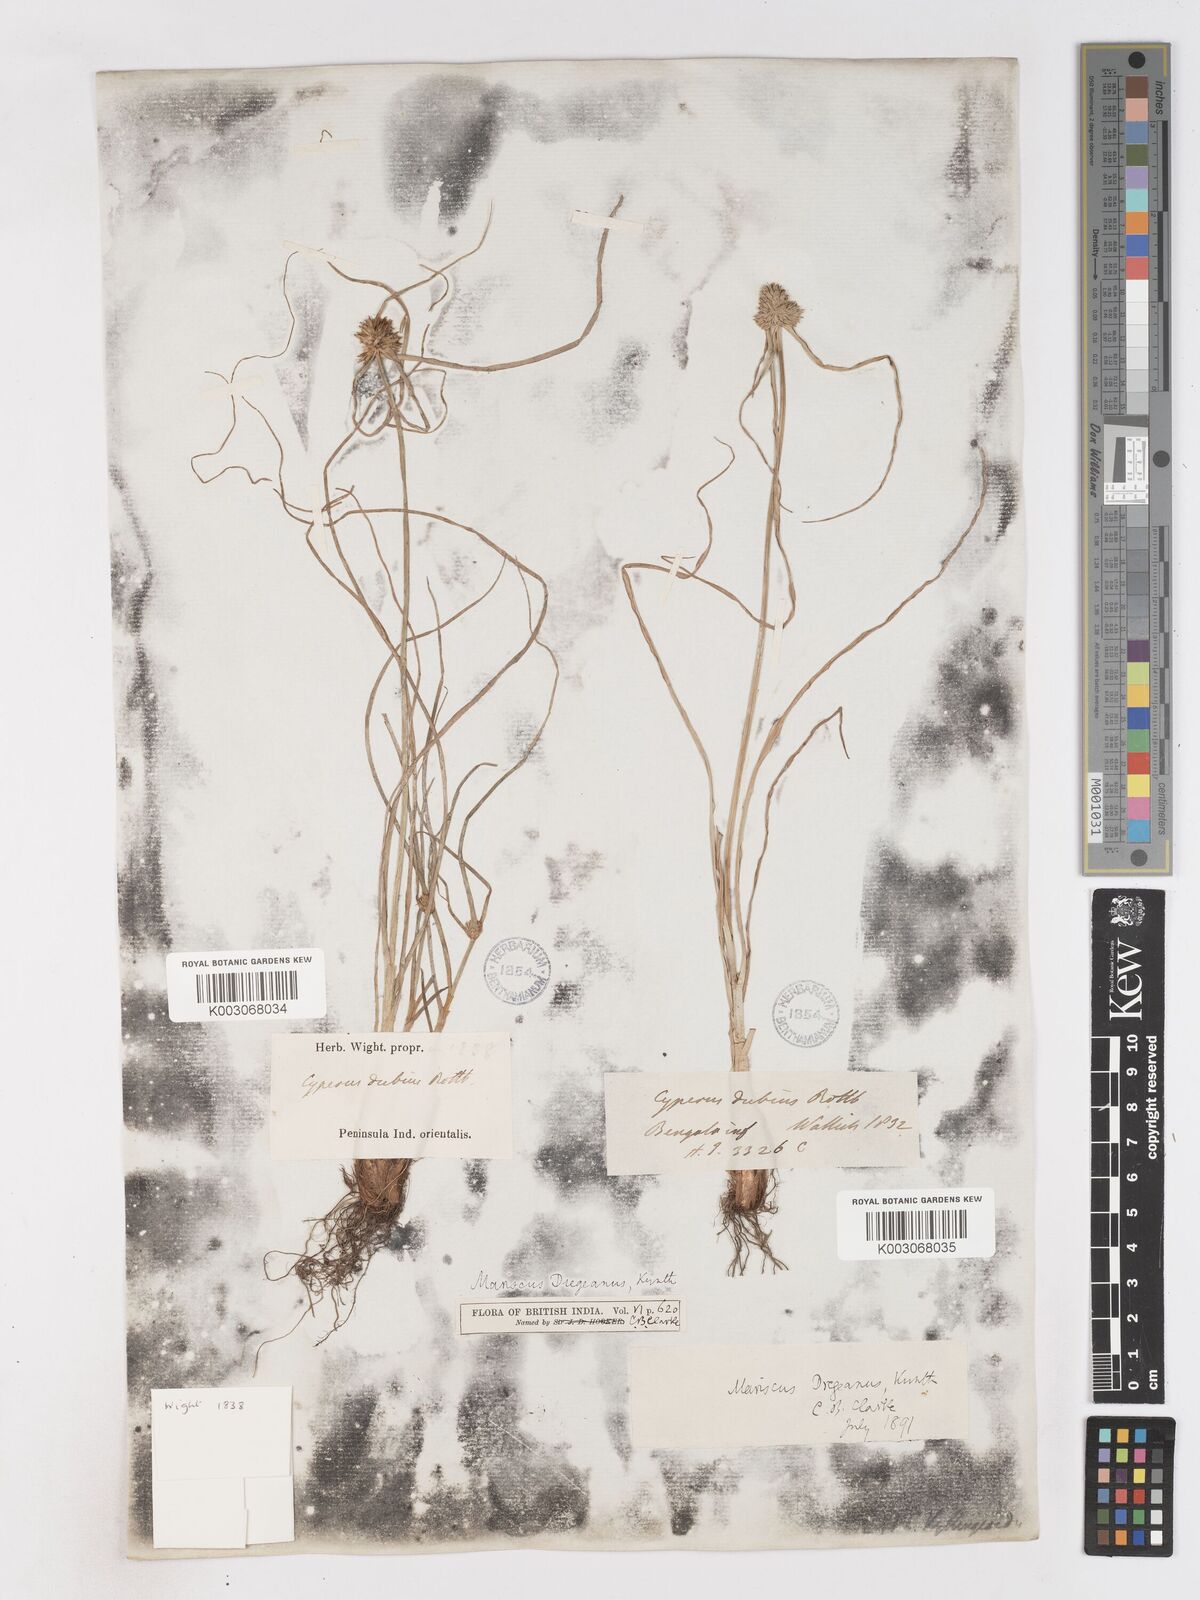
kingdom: Plantae
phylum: Tracheophyta
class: Liliopsida
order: Poales
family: Cyperaceae
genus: Cyperus
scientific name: Cyperus dubius
